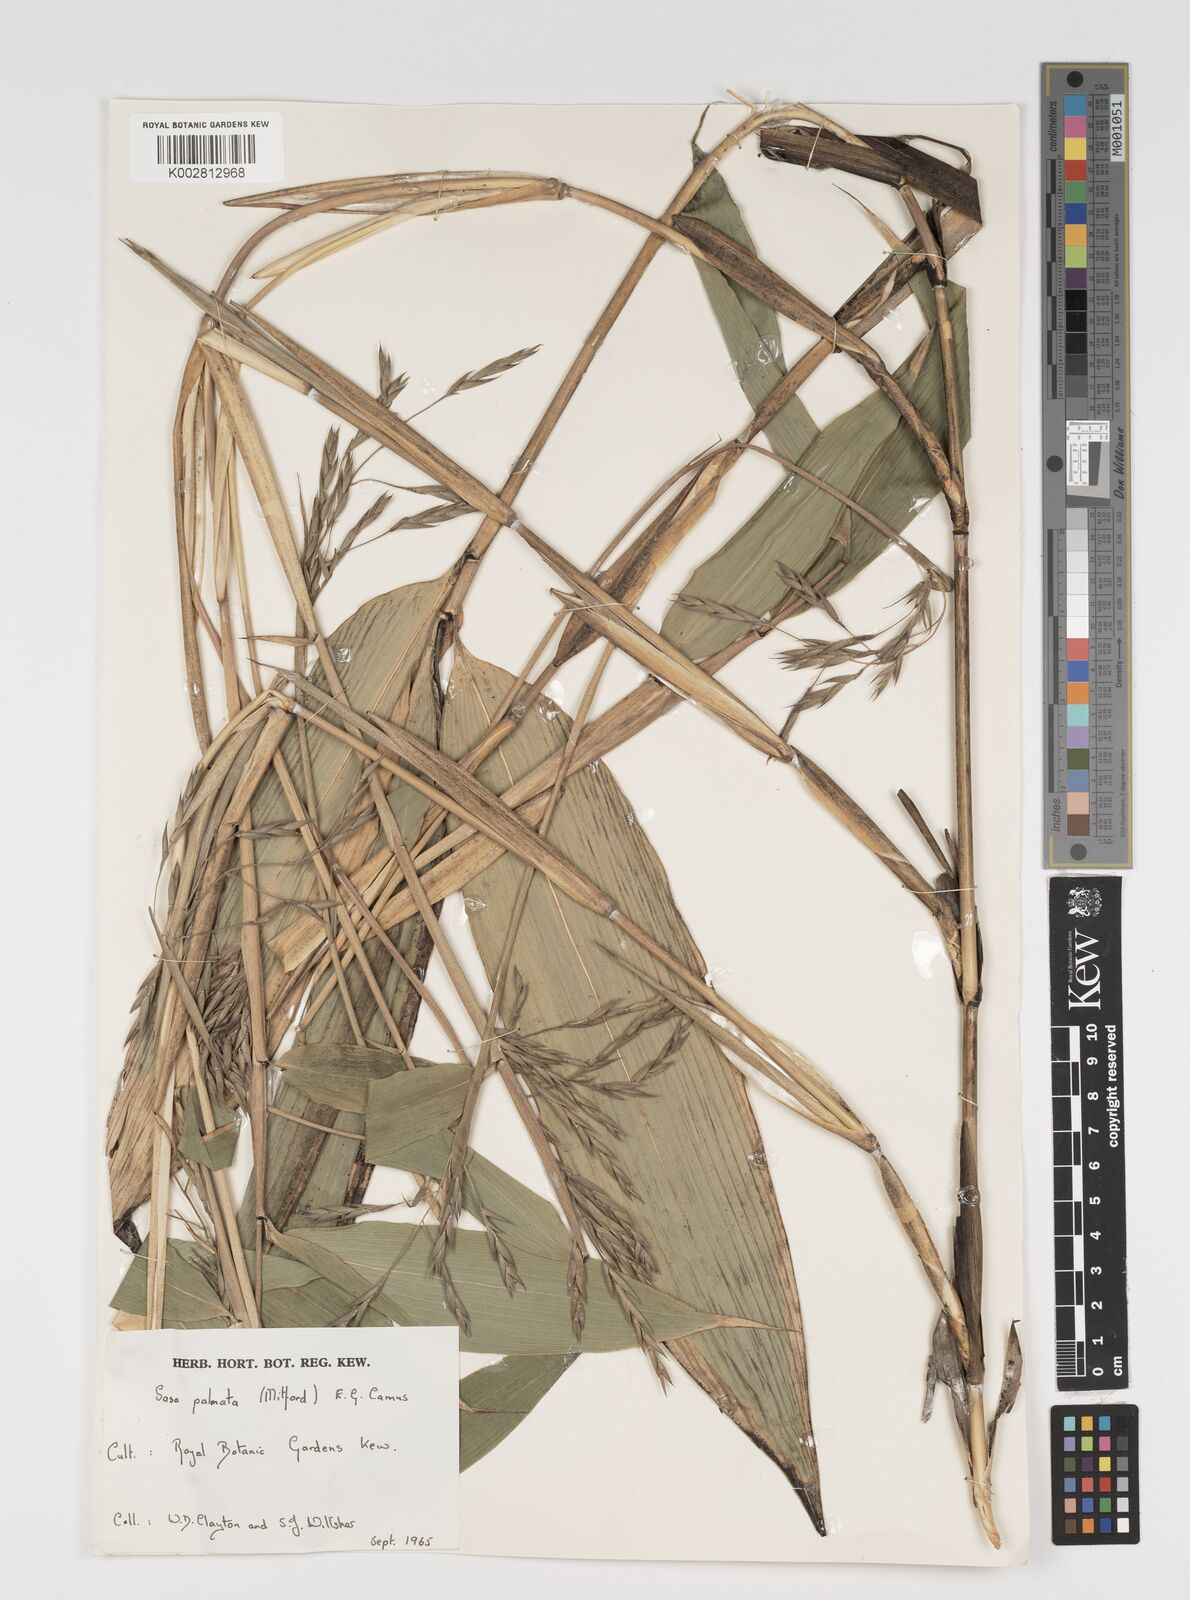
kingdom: Plantae
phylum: Tracheophyta
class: Liliopsida
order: Poales
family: Poaceae
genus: Sasa
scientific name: Sasa palmata
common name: Broad-leaved bamboo
